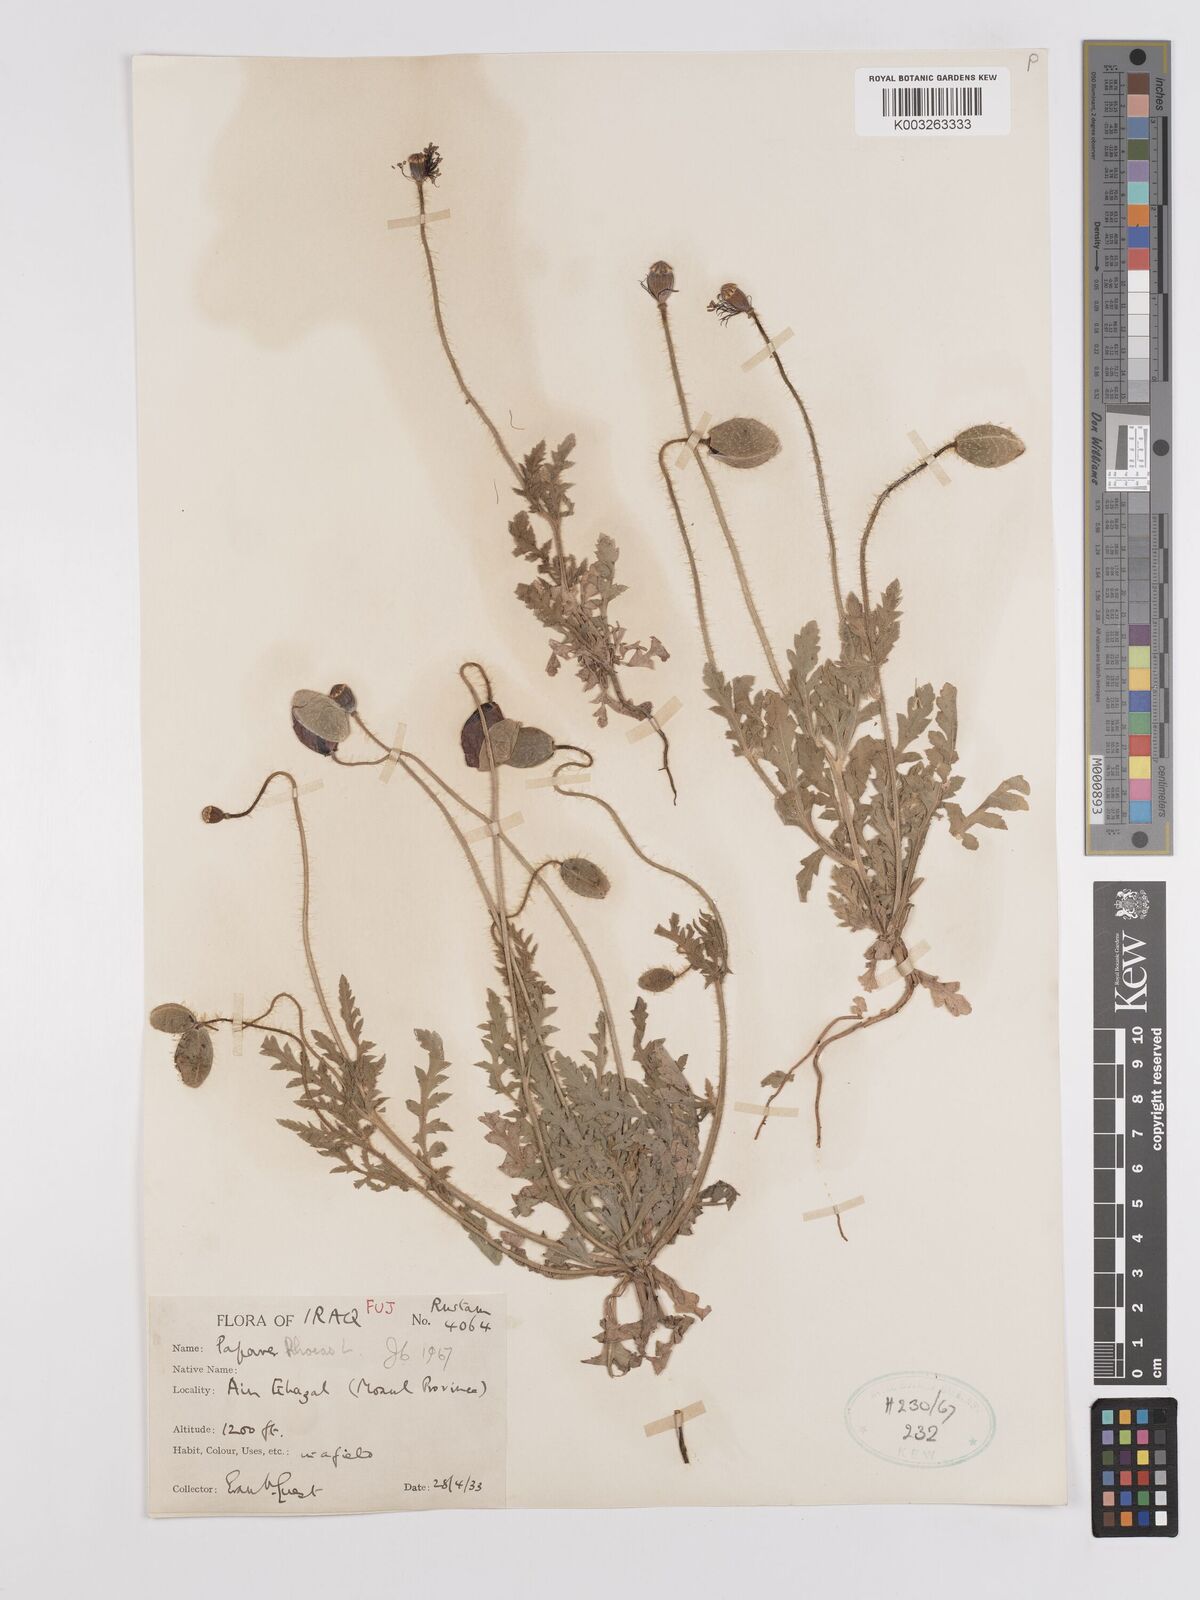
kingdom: Plantae
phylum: Tracheophyta
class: Magnoliopsida
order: Ranunculales
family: Papaveraceae
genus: Papaver
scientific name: Papaver rhoeas
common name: Corn poppy
